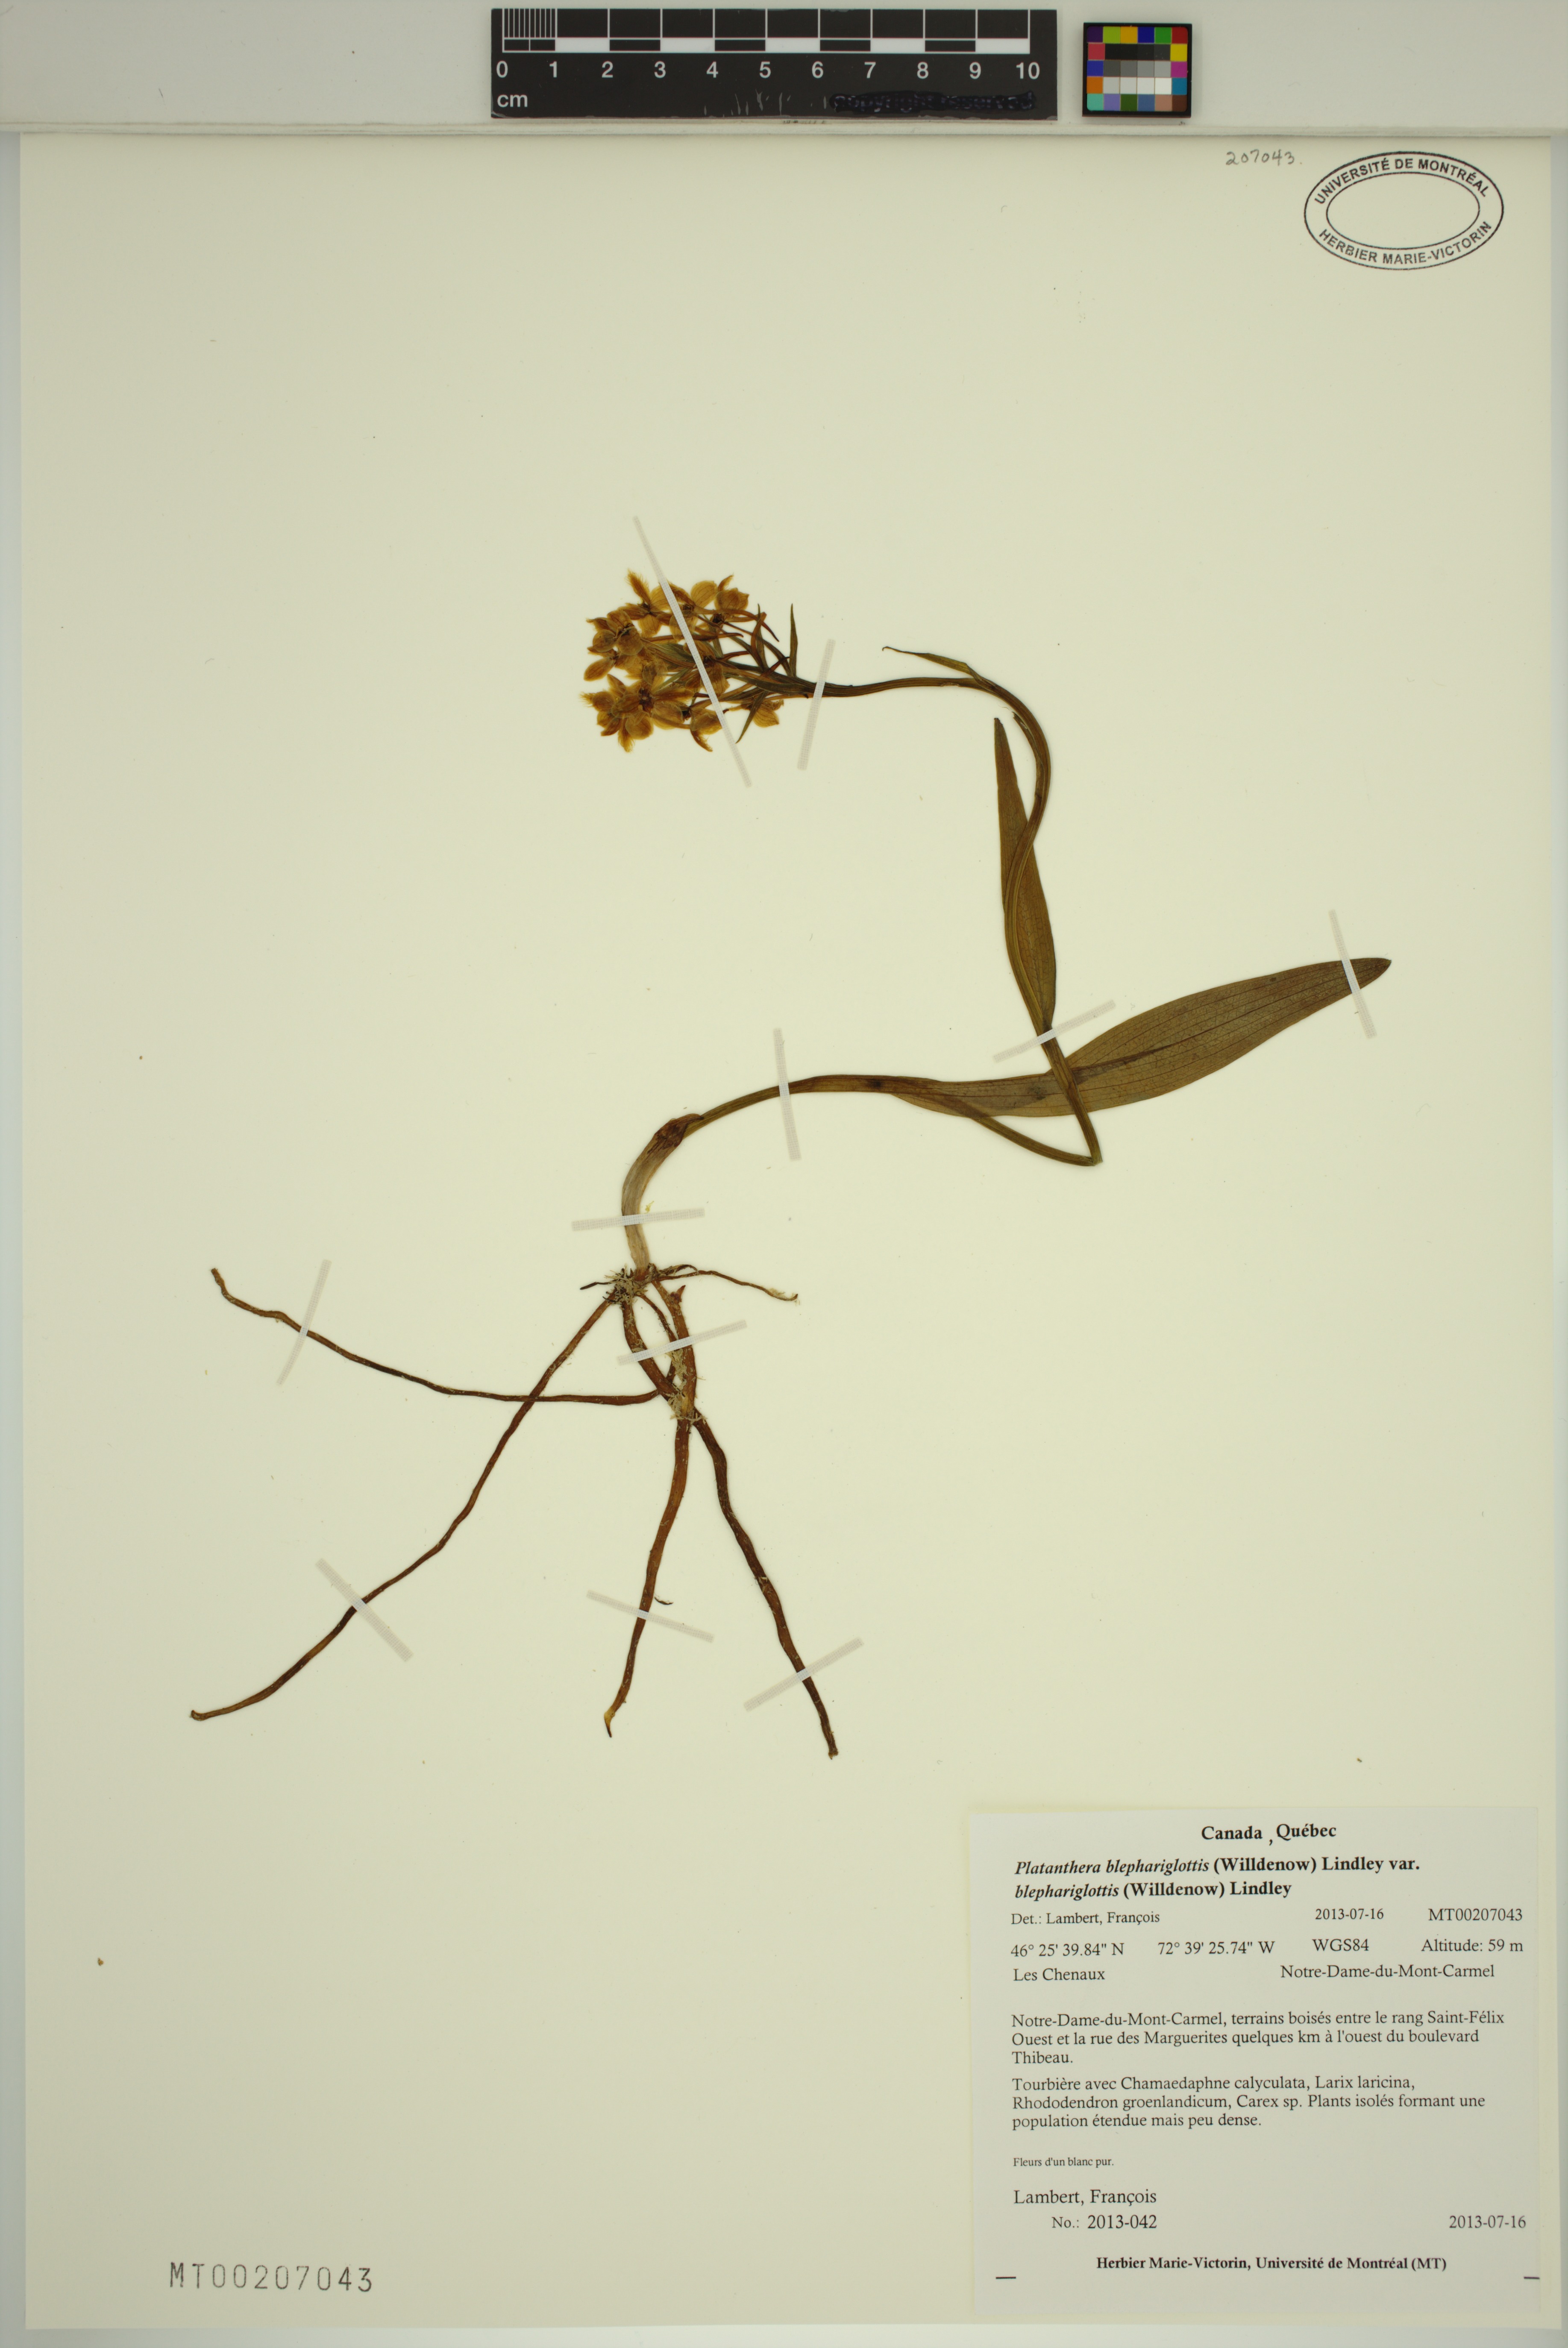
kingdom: Plantae
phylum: Tracheophyta
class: Liliopsida
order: Asparagales
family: Orchidaceae
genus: Platanthera
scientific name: Platanthera blephariglottis
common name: White fringed orchid
